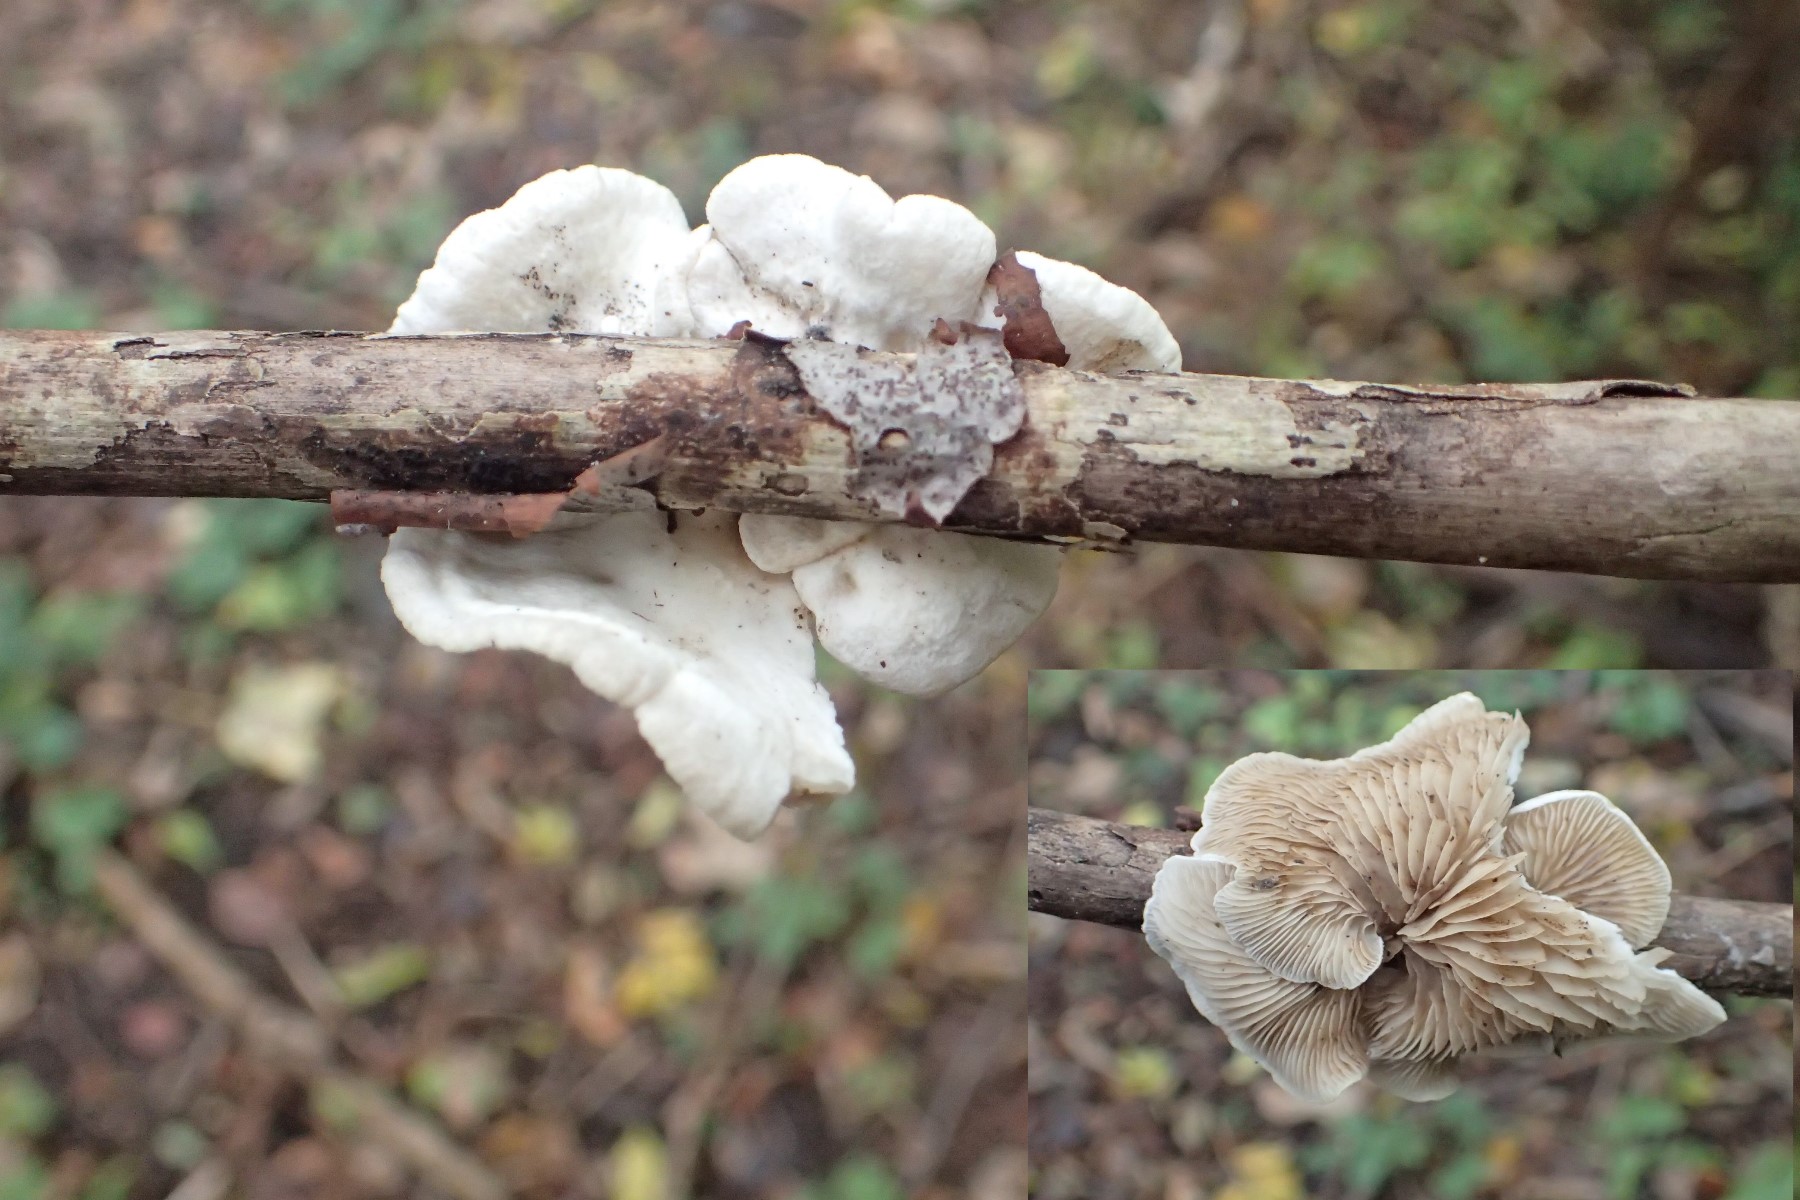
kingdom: Fungi
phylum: Basidiomycota
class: Agaricomycetes
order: Agaricales
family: Crepidotaceae
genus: Crepidotus
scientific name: Crepidotus
